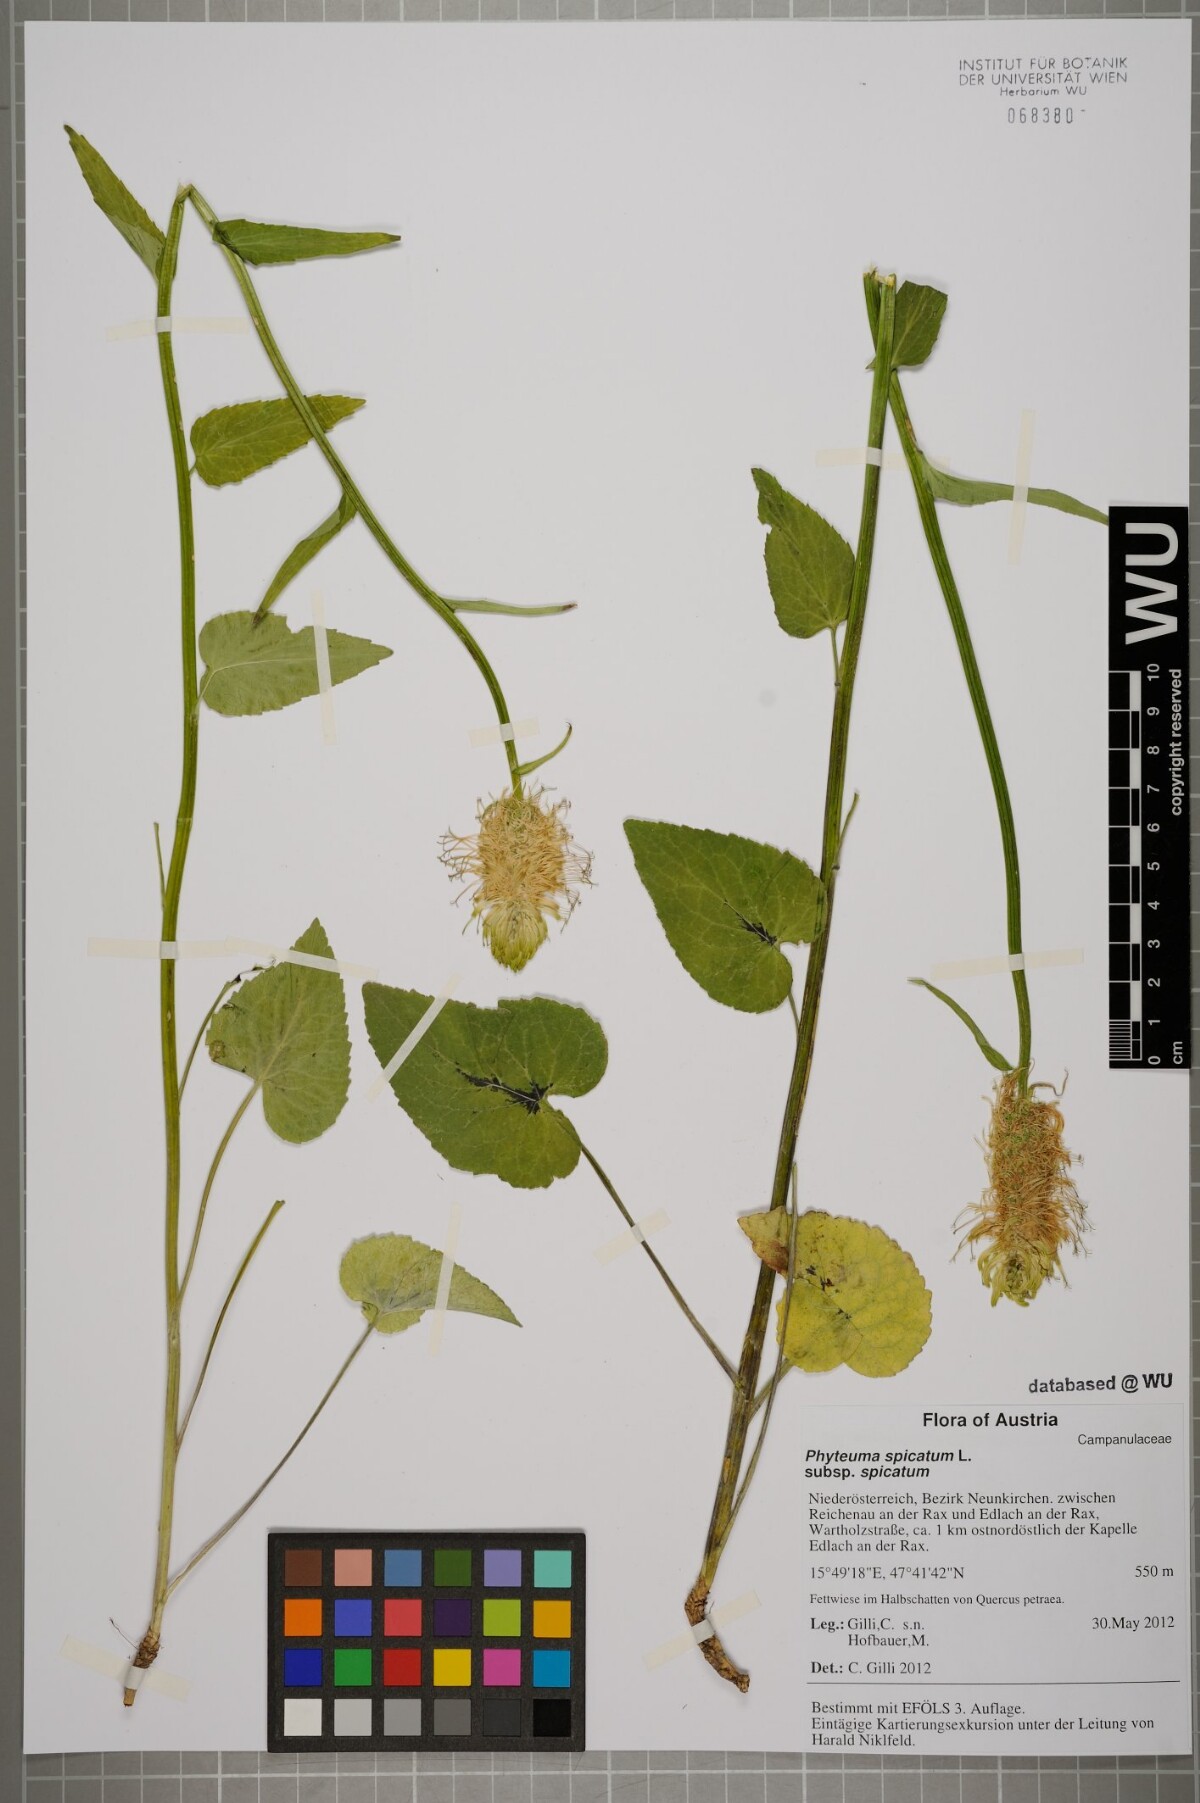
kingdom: Plantae
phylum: Tracheophyta
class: Magnoliopsida
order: Asterales
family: Campanulaceae
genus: Phyteuma
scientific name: Phyteuma spicatum
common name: Spiked rampion
